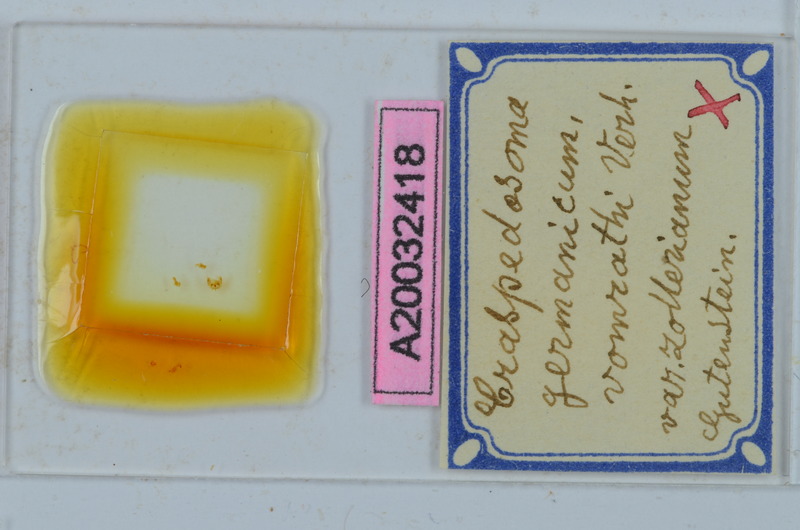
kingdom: Animalia
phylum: Arthropoda
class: Diplopoda
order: Chordeumatida
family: Craspedosomatidae
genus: Craspedosoma
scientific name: Craspedosoma rawlinsii
